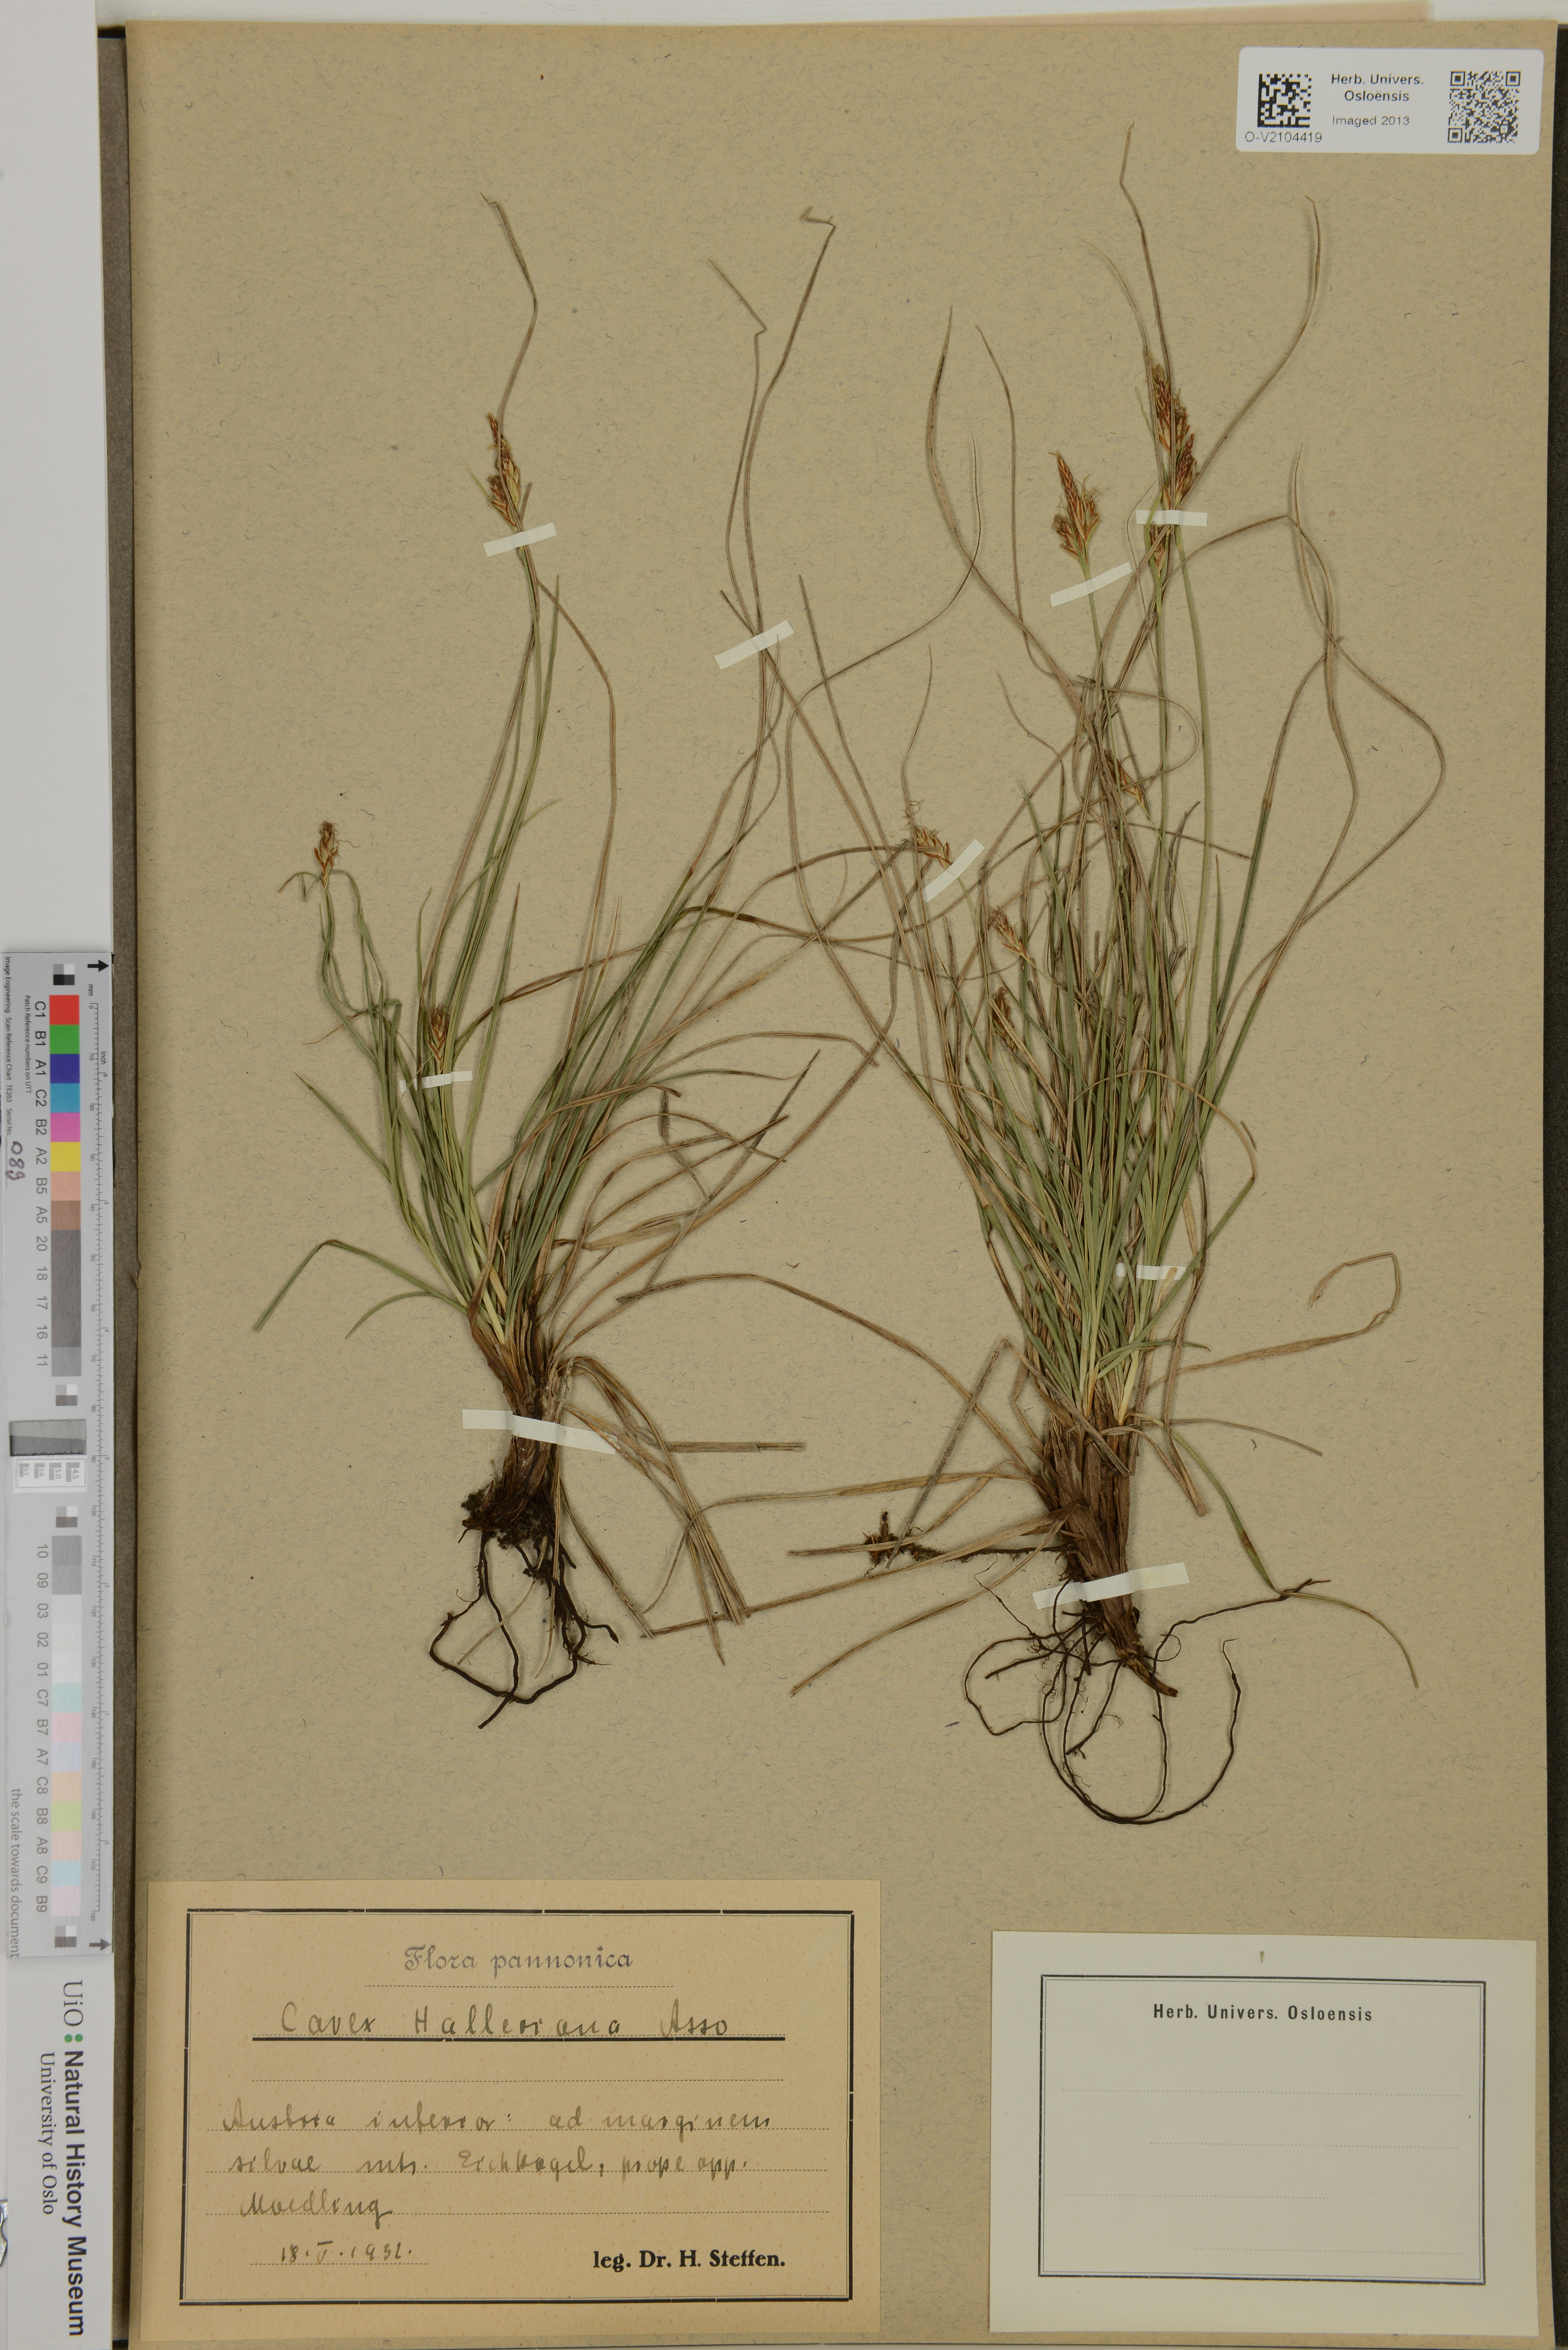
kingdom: Plantae
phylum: Tracheophyta
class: Liliopsida
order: Poales
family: Cyperaceae
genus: Carex
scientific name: Carex halleriana
